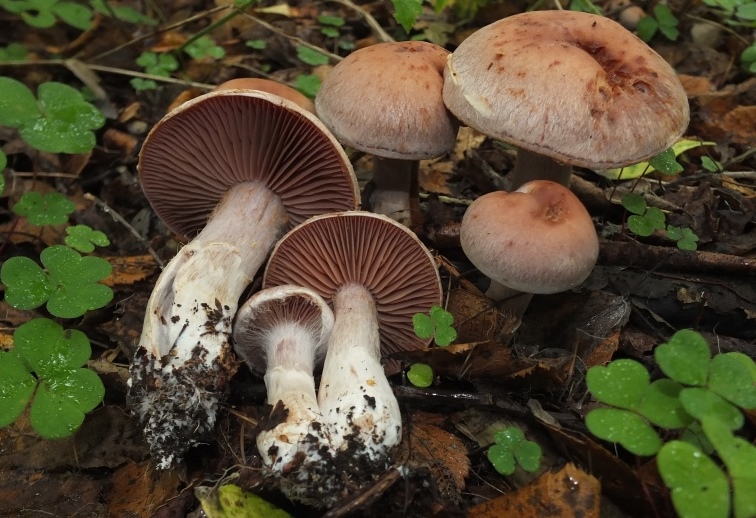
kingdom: Fungi
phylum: Basidiomycota
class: Agaricomycetes
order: Agaricales
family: Cortinariaceae
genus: Cortinarius
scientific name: Cortinarius lucorum
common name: aspe-slørhat
